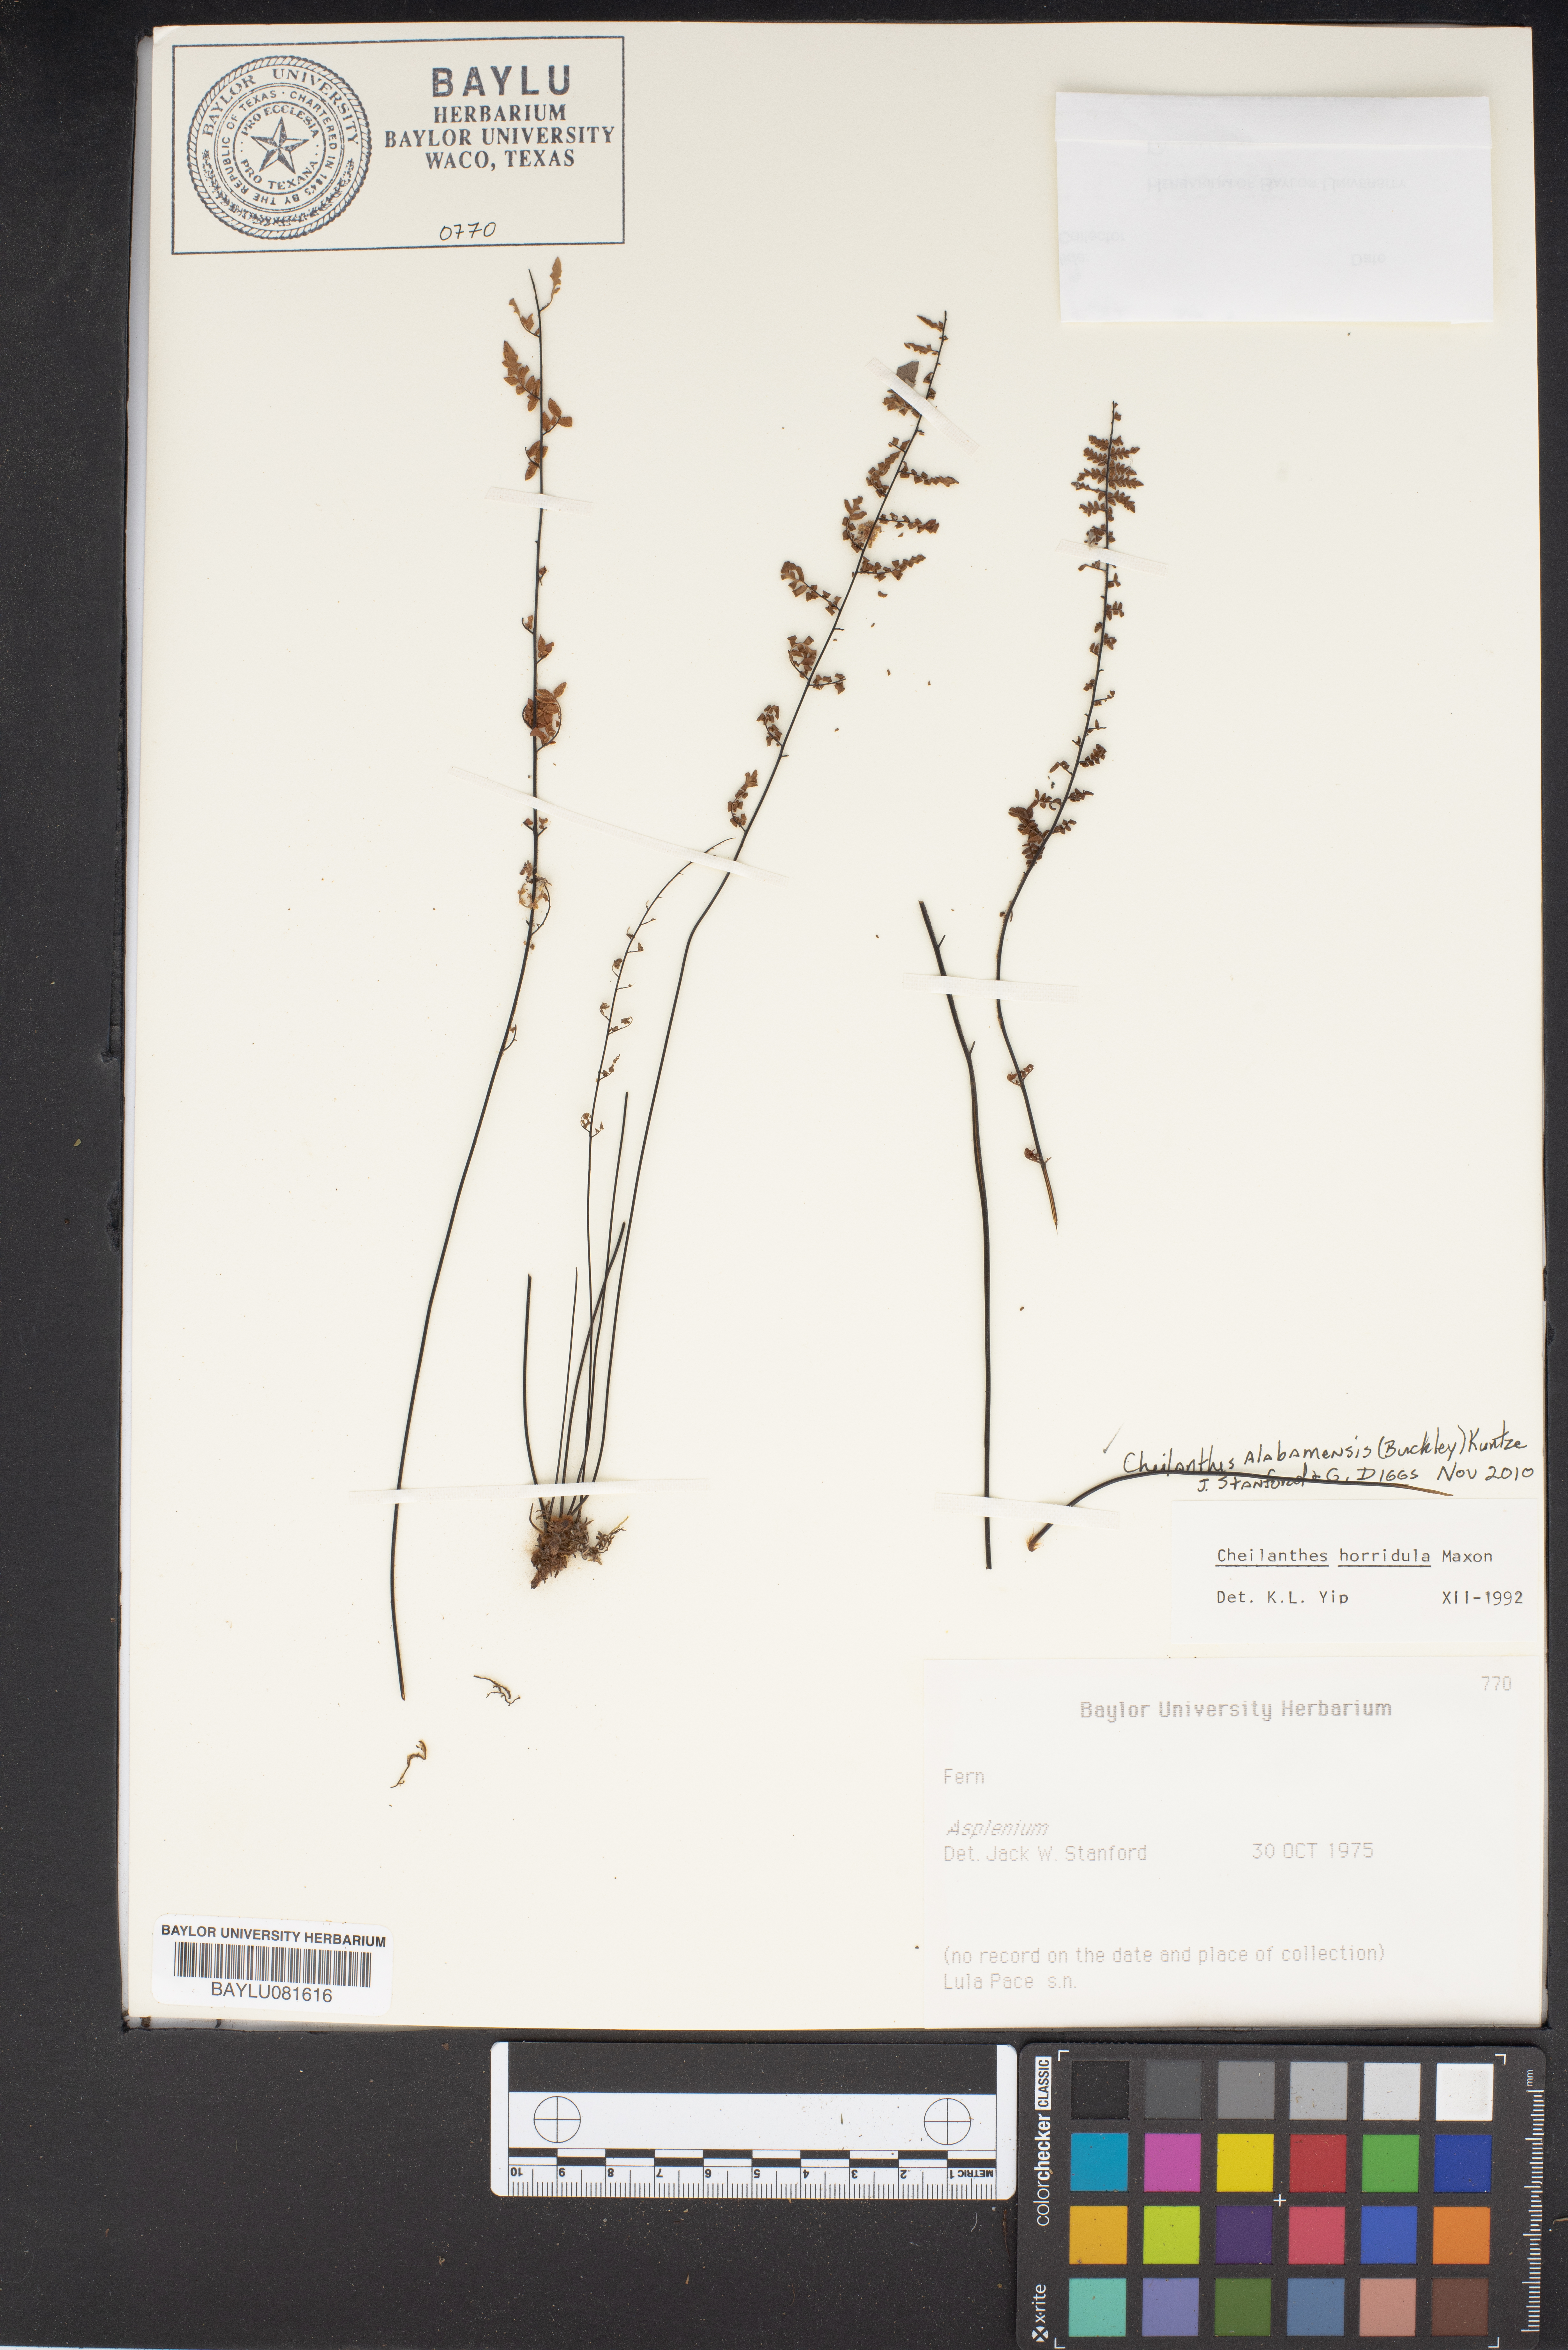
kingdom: Plantae
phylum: Tracheophyta
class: Polypodiopsida
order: Polypodiales
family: Pteridaceae
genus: Myriopteris
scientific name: Myriopteris alabamensis
